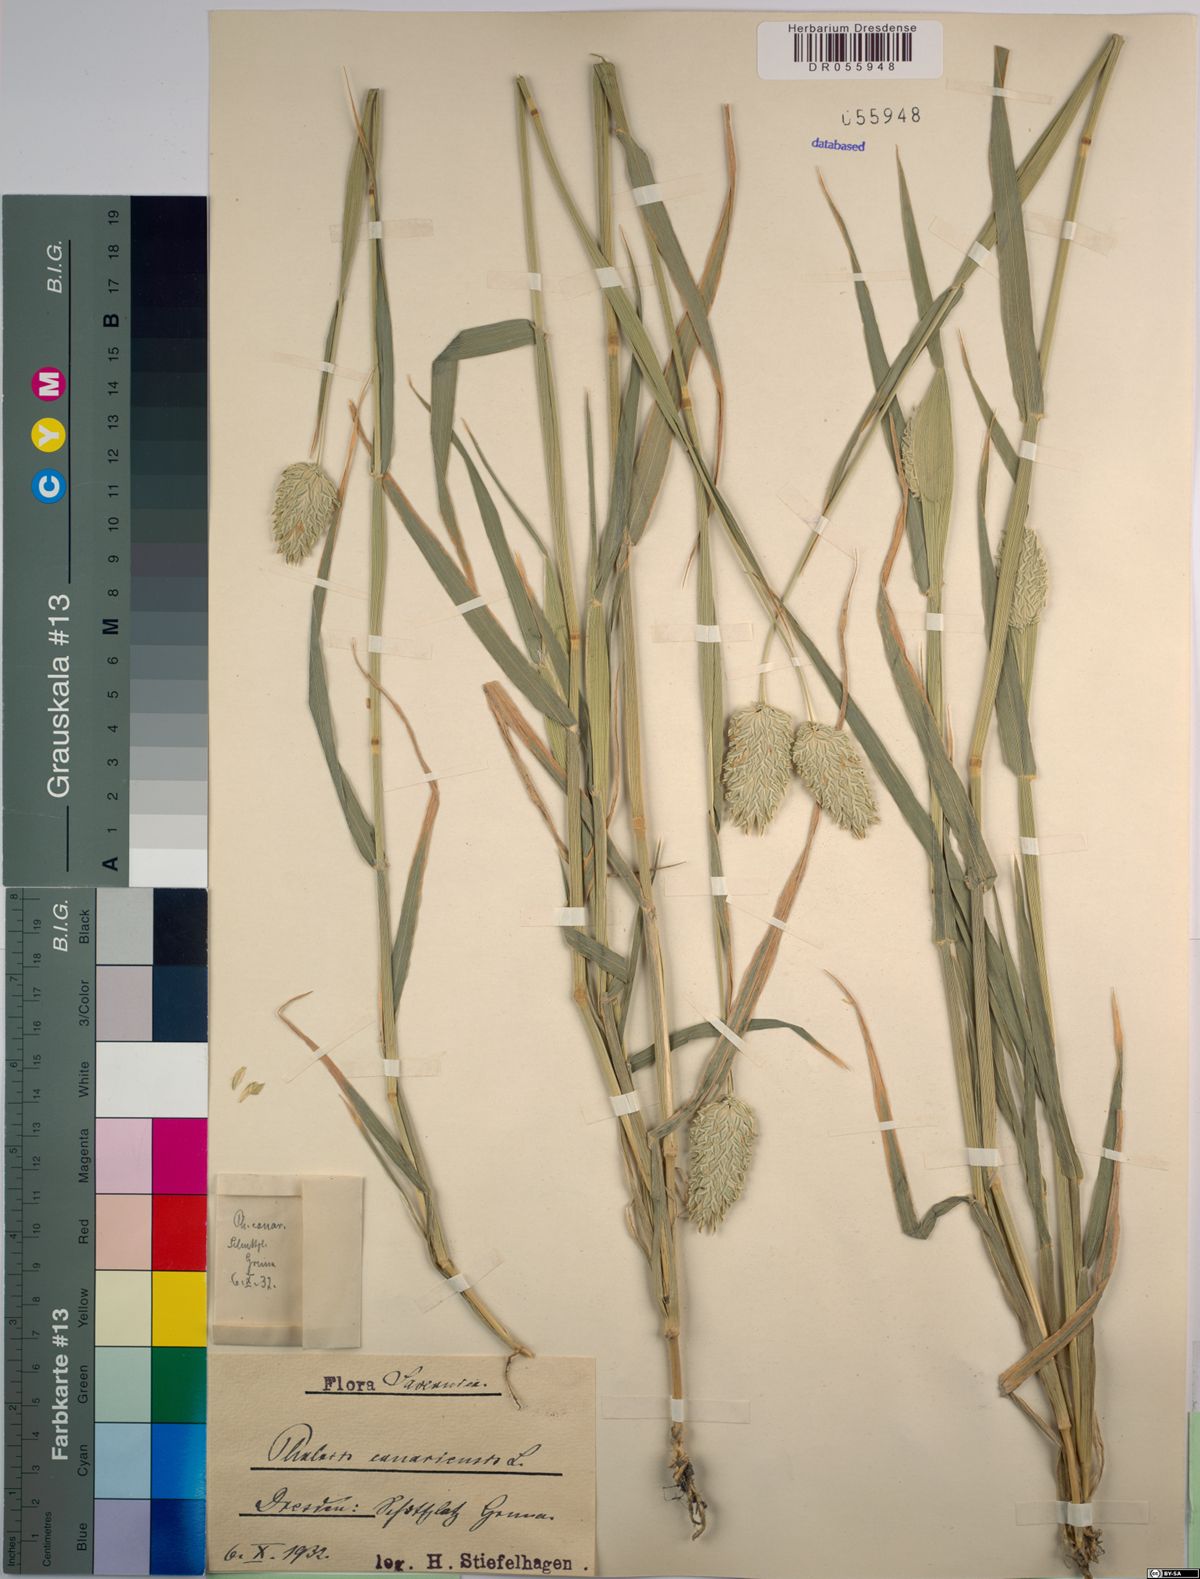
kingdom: Plantae
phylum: Tracheophyta
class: Liliopsida
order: Poales
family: Poaceae
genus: Phalaris
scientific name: Phalaris canariensis
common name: Annual canarygrass
